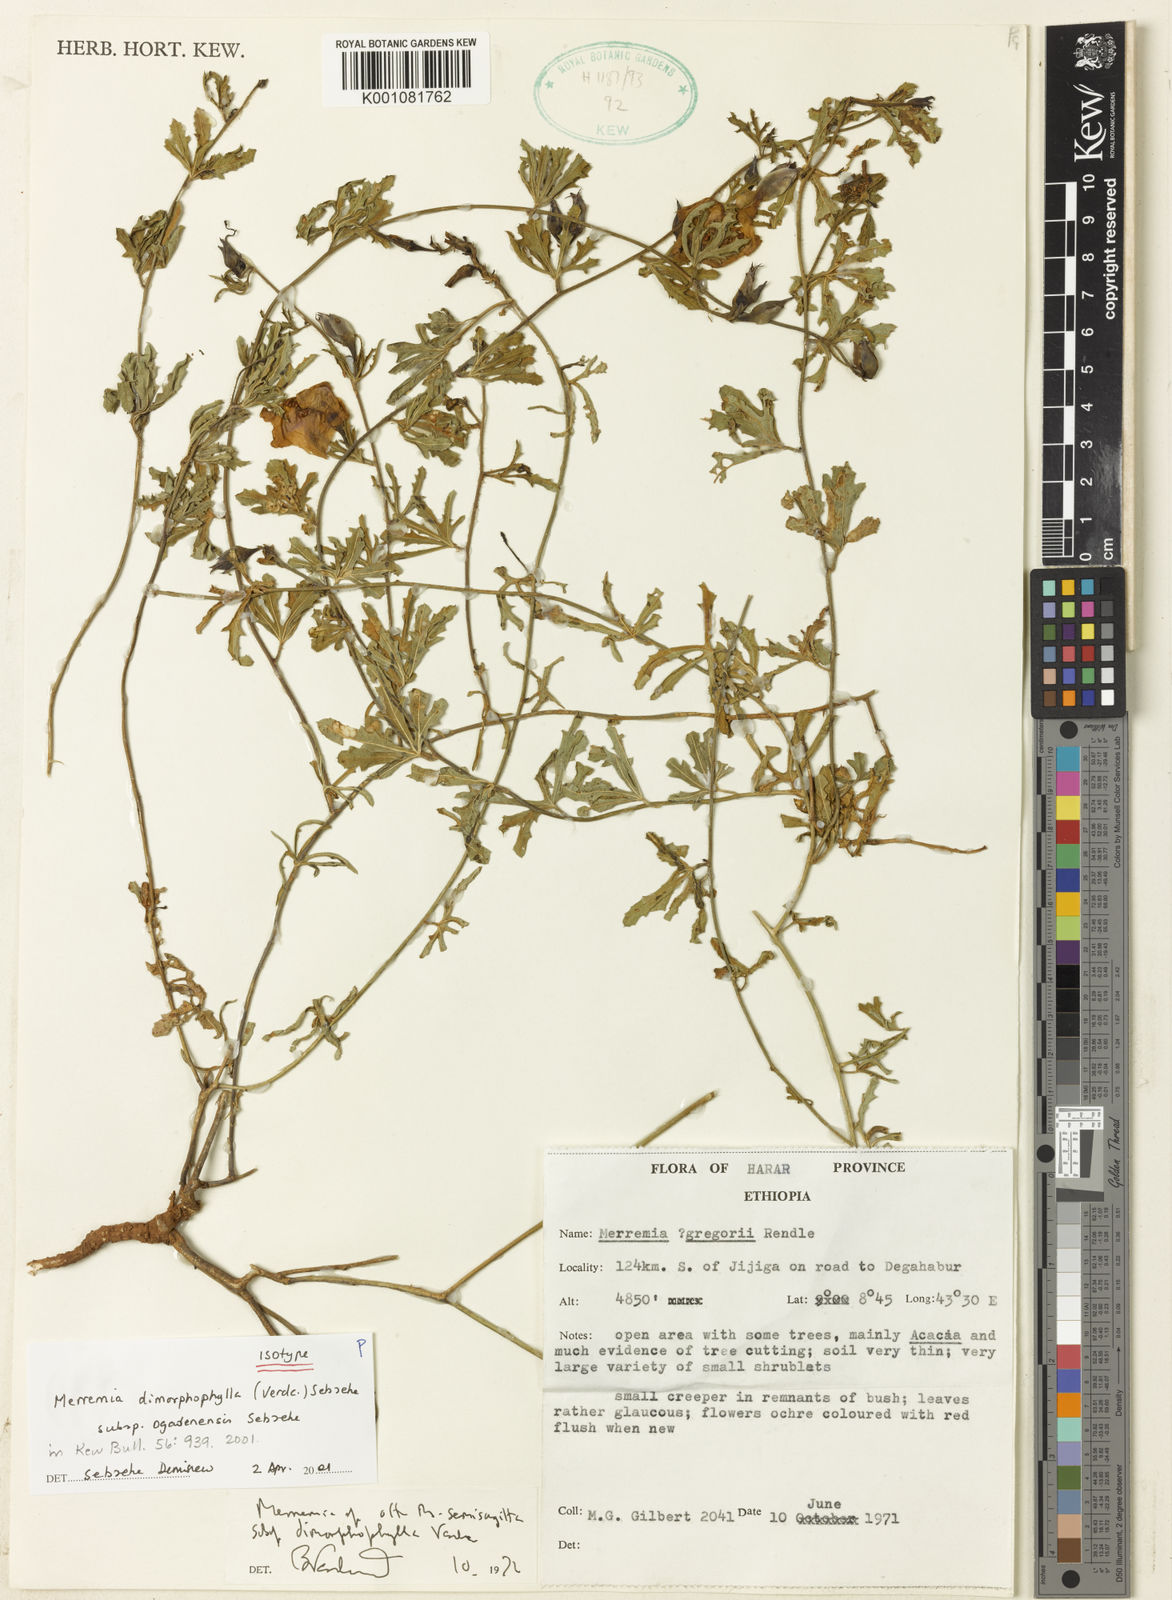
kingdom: Plantae
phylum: Tracheophyta
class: Magnoliopsida
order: Solanales
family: Convolvulaceae
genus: Distimake
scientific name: Distimake
